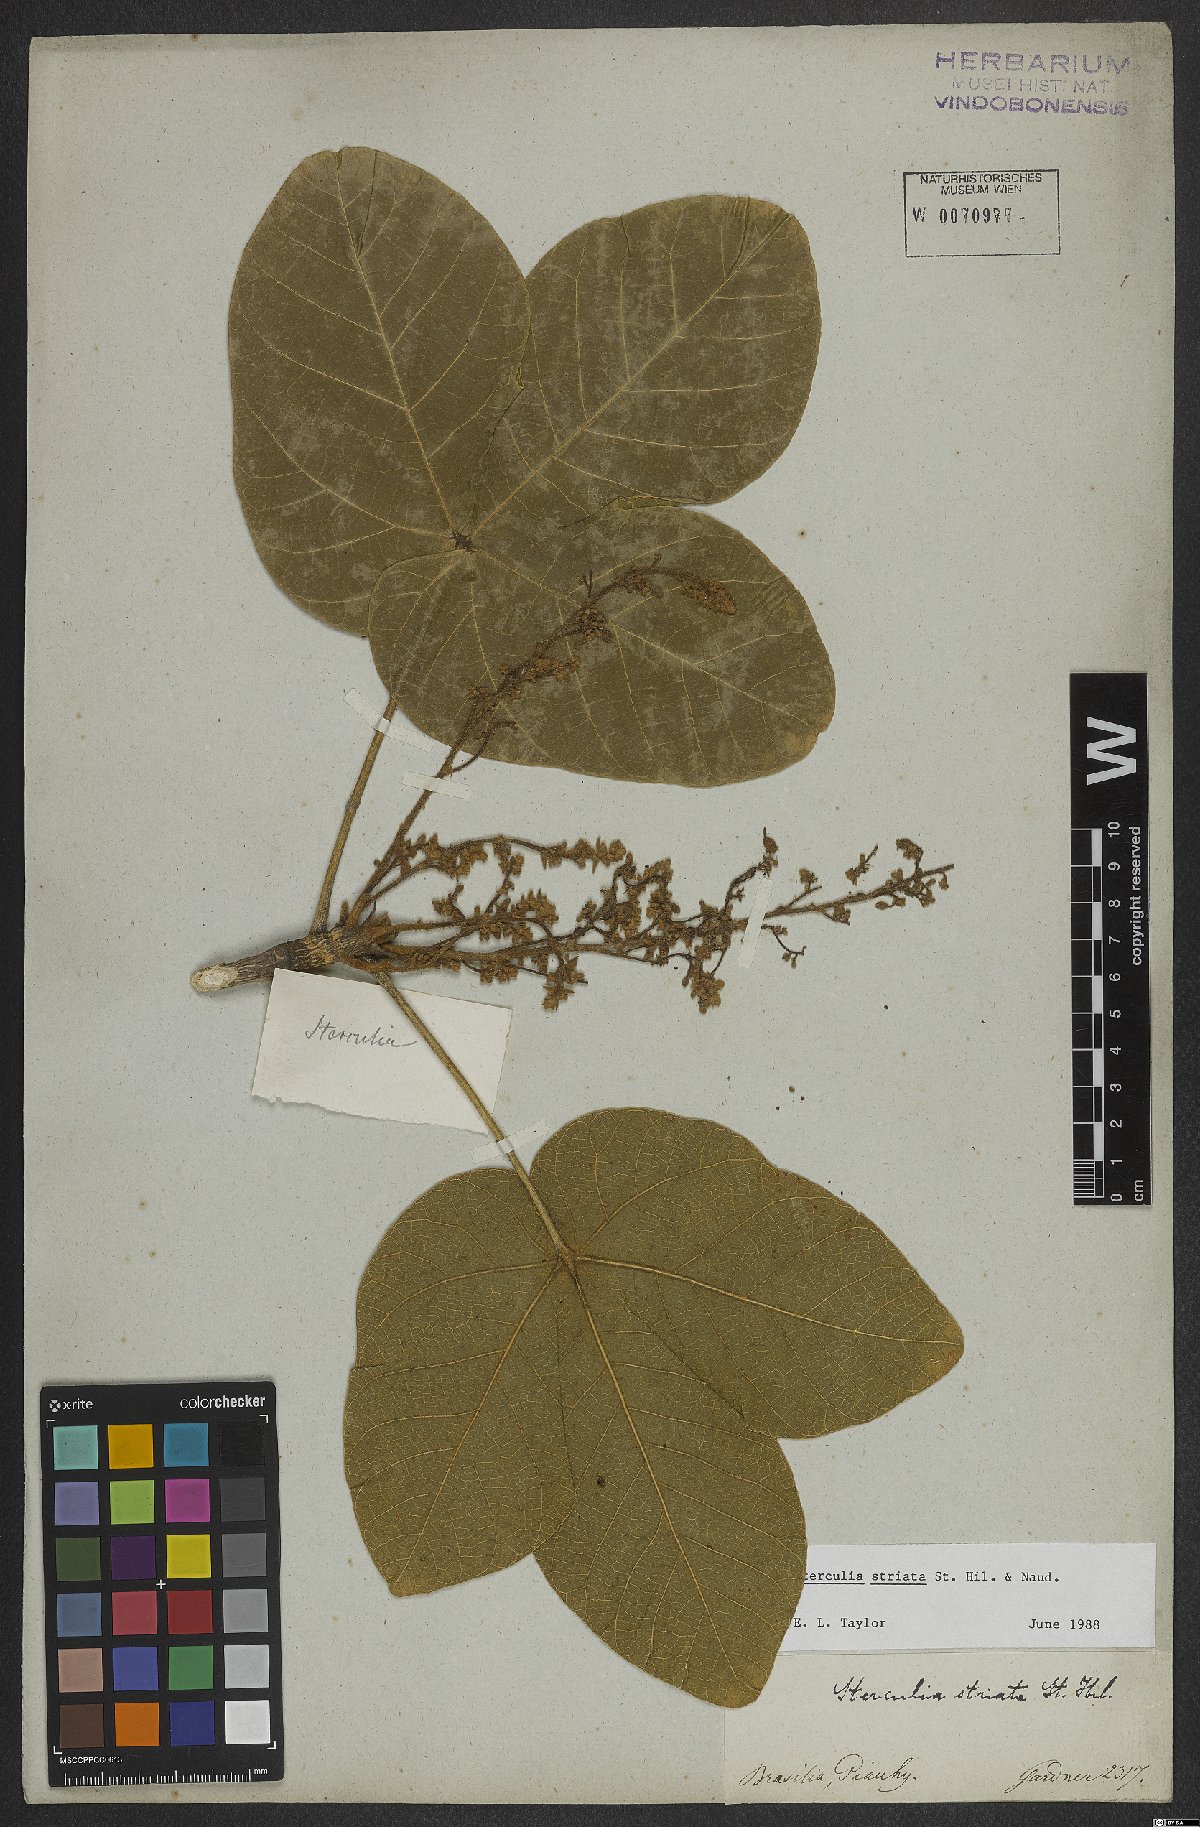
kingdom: Plantae
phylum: Tracheophyta
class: Magnoliopsida
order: Malvales
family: Malvaceae
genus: Sterculia
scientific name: Sterculia striata
